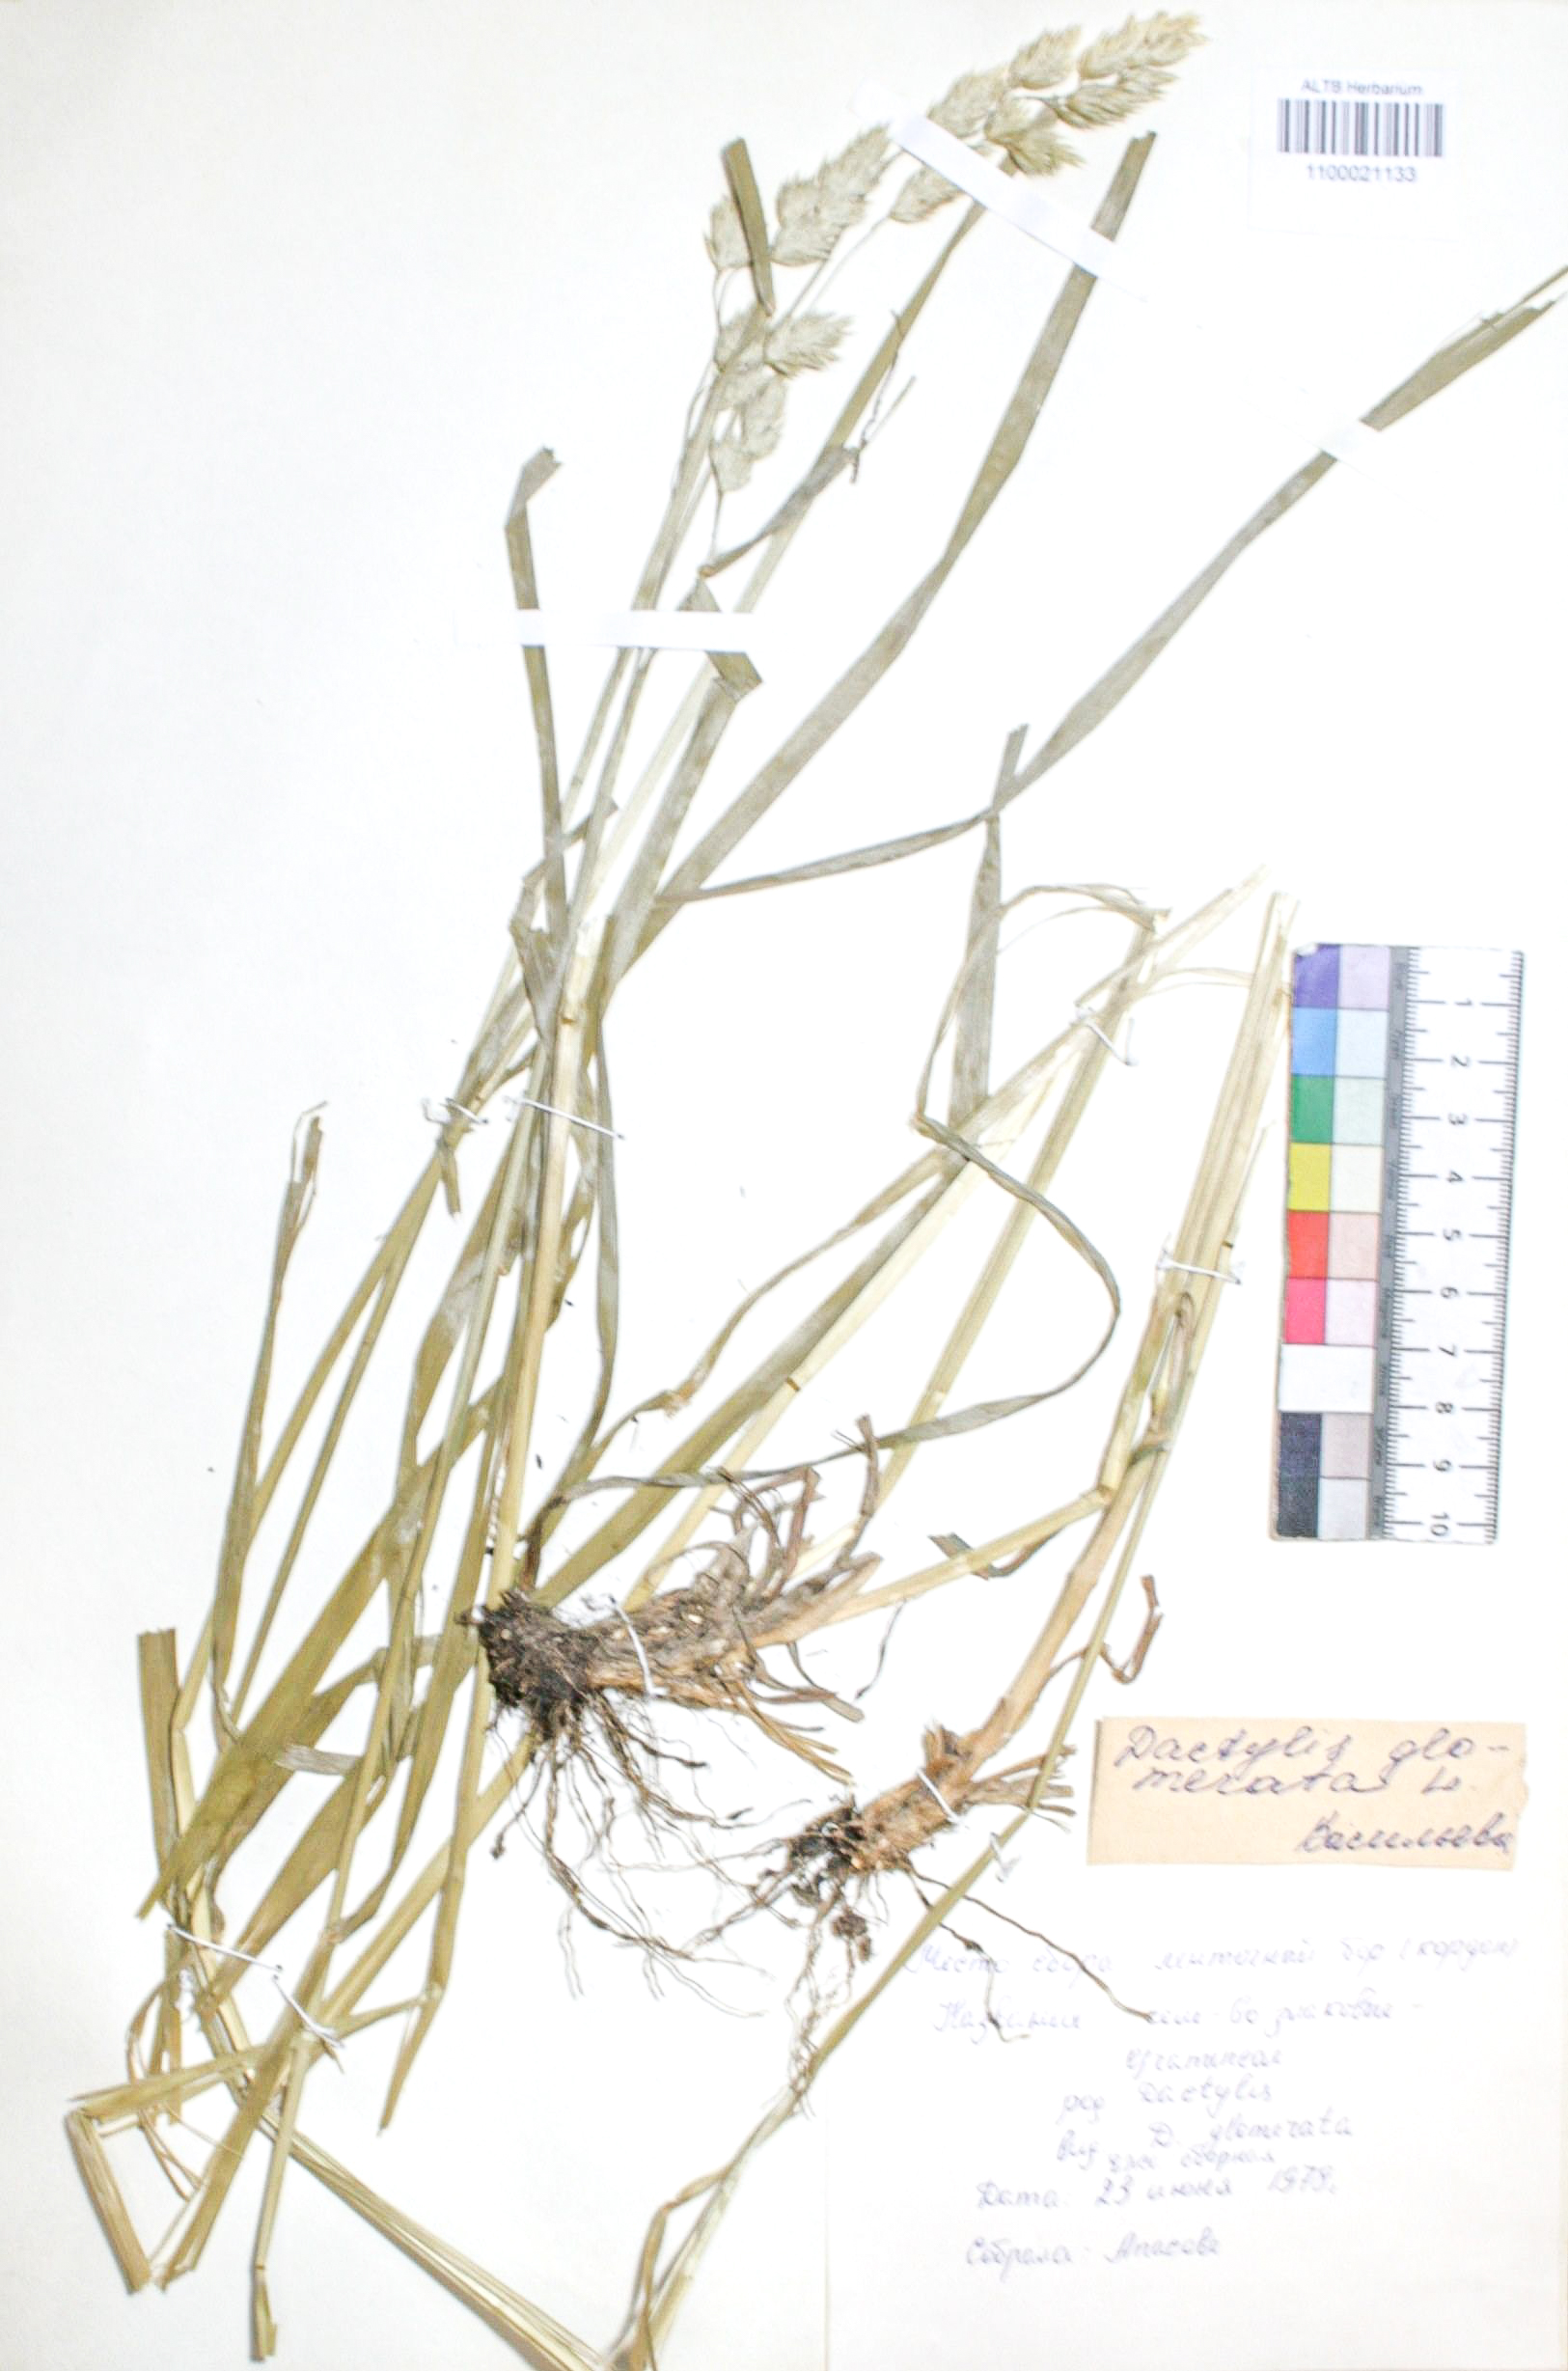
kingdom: Plantae
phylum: Tracheophyta
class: Liliopsida
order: Poales
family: Poaceae
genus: Dactylis
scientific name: Dactylis glomerata
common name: Orchardgrass
